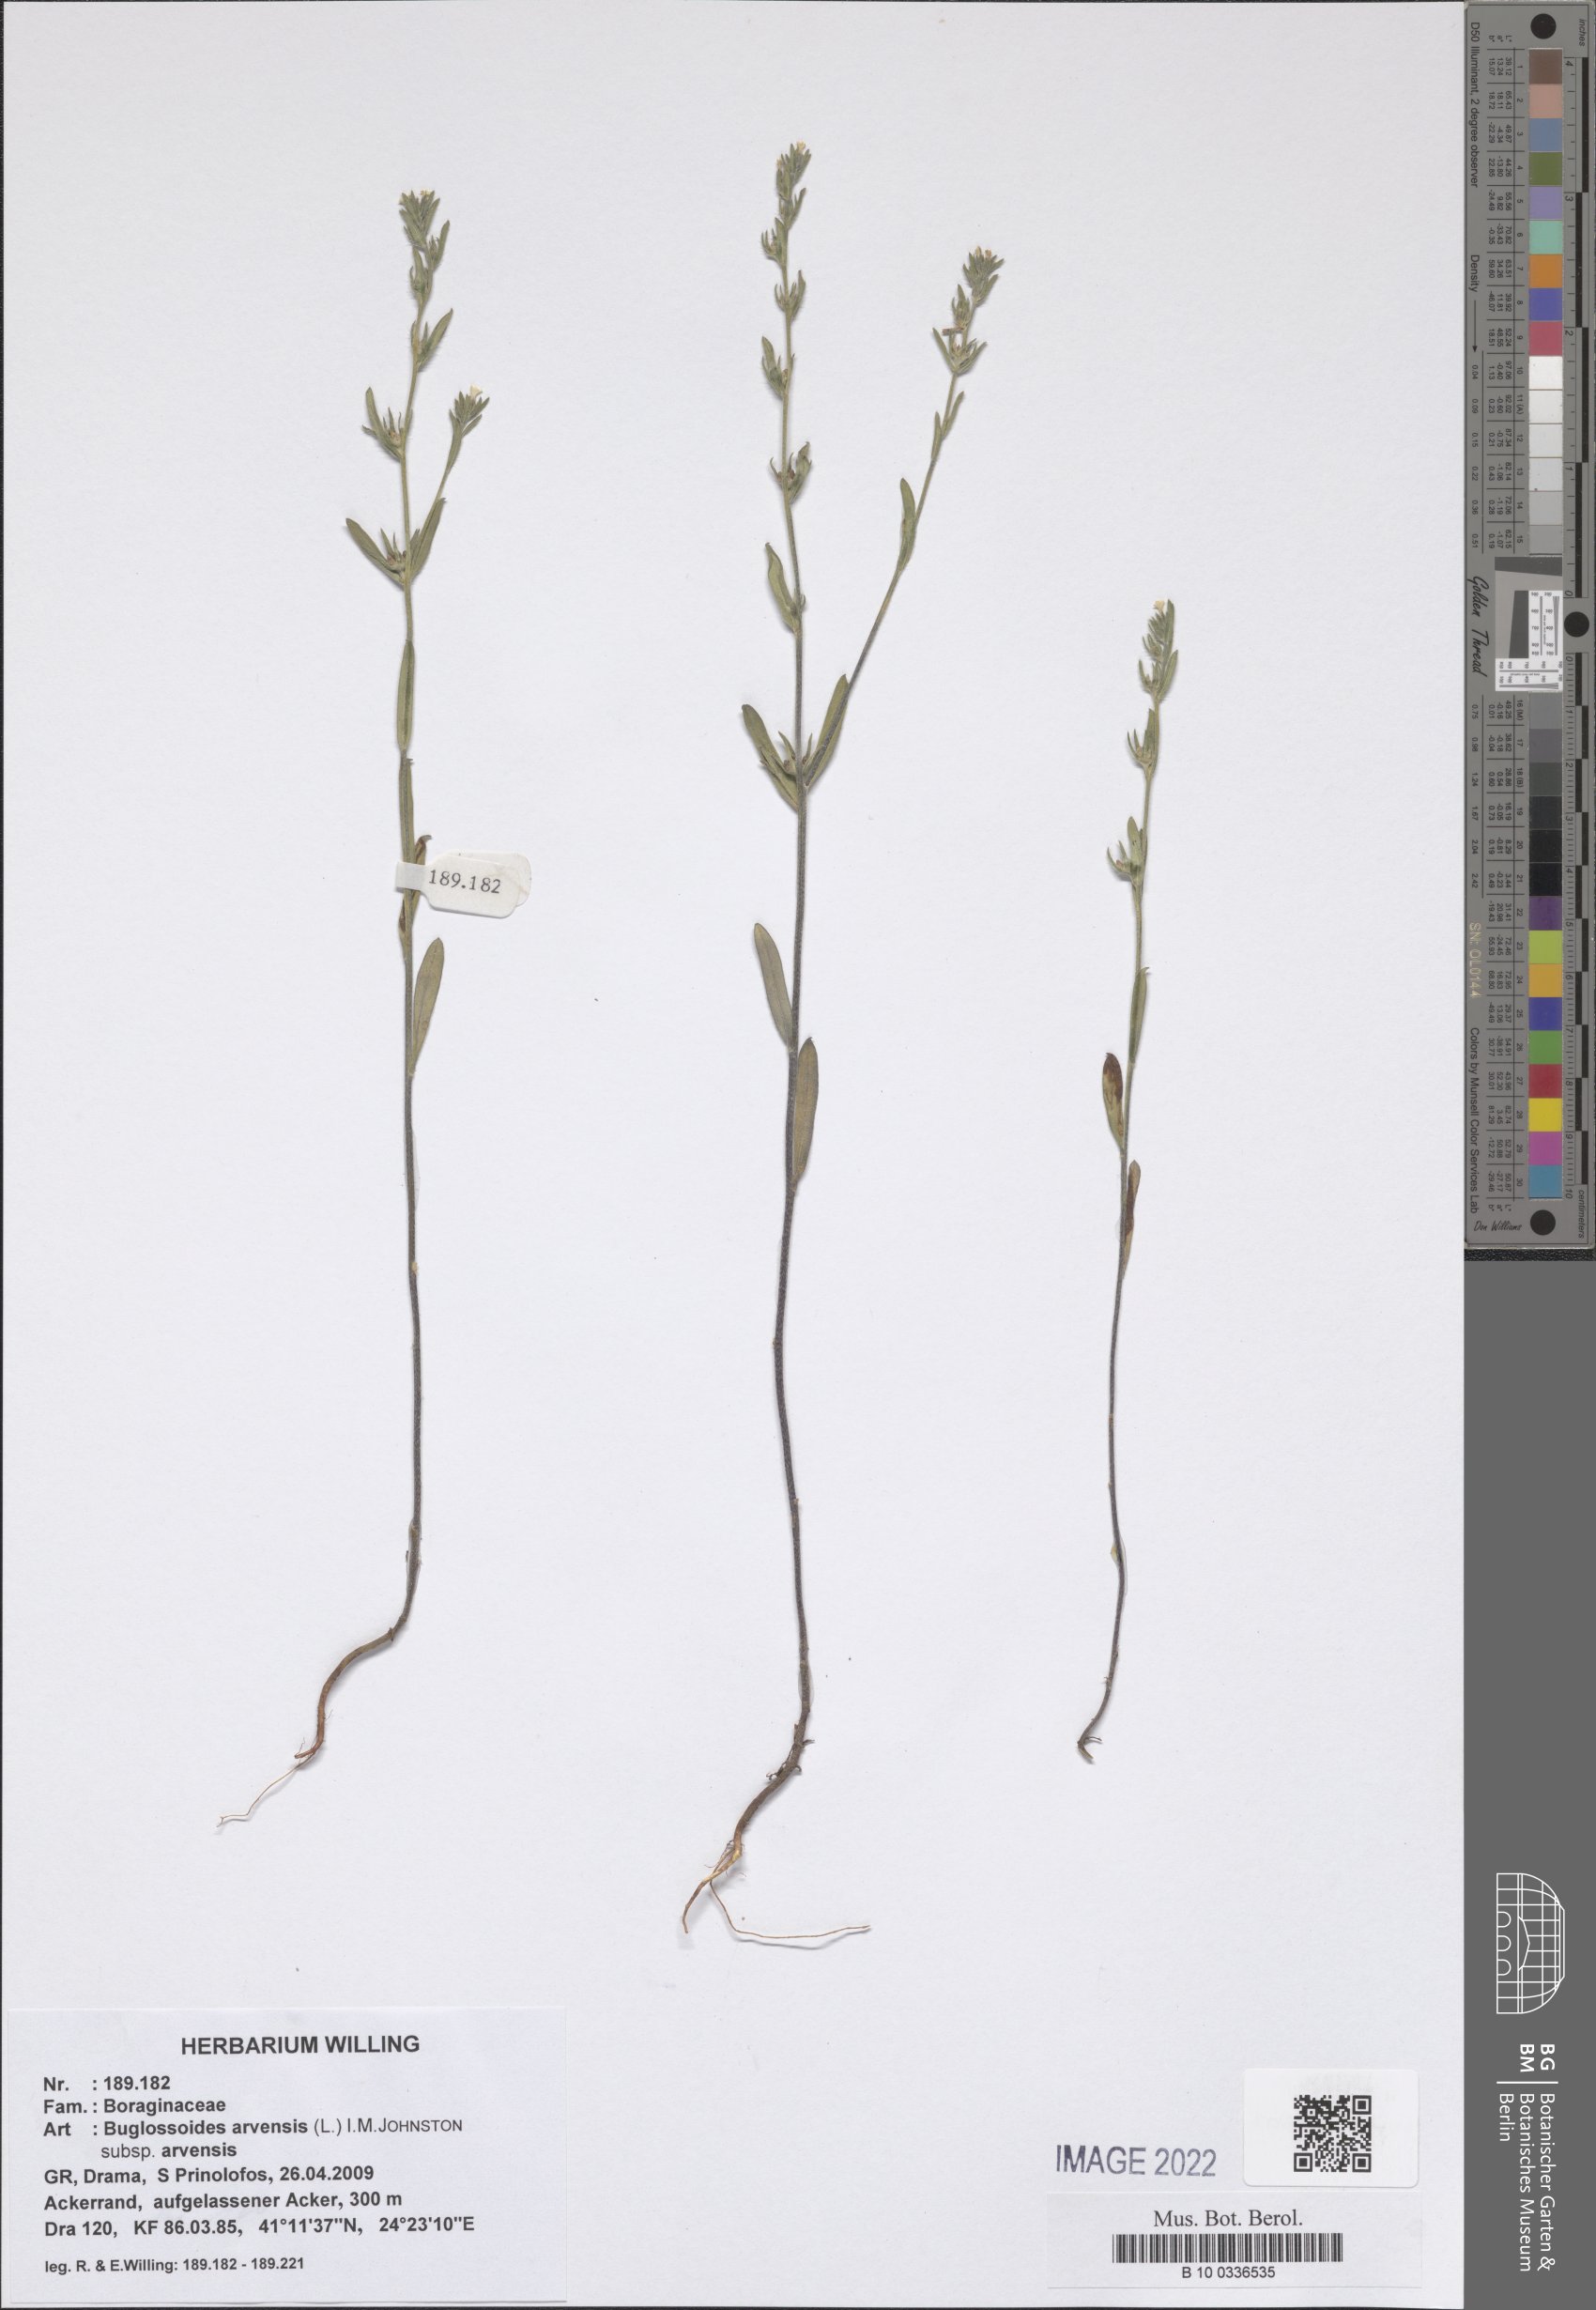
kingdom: Plantae
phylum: Tracheophyta
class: Magnoliopsida
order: Boraginales
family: Boraginaceae
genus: Buglossoides
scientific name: Buglossoides arvensis
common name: Corn gromwell
